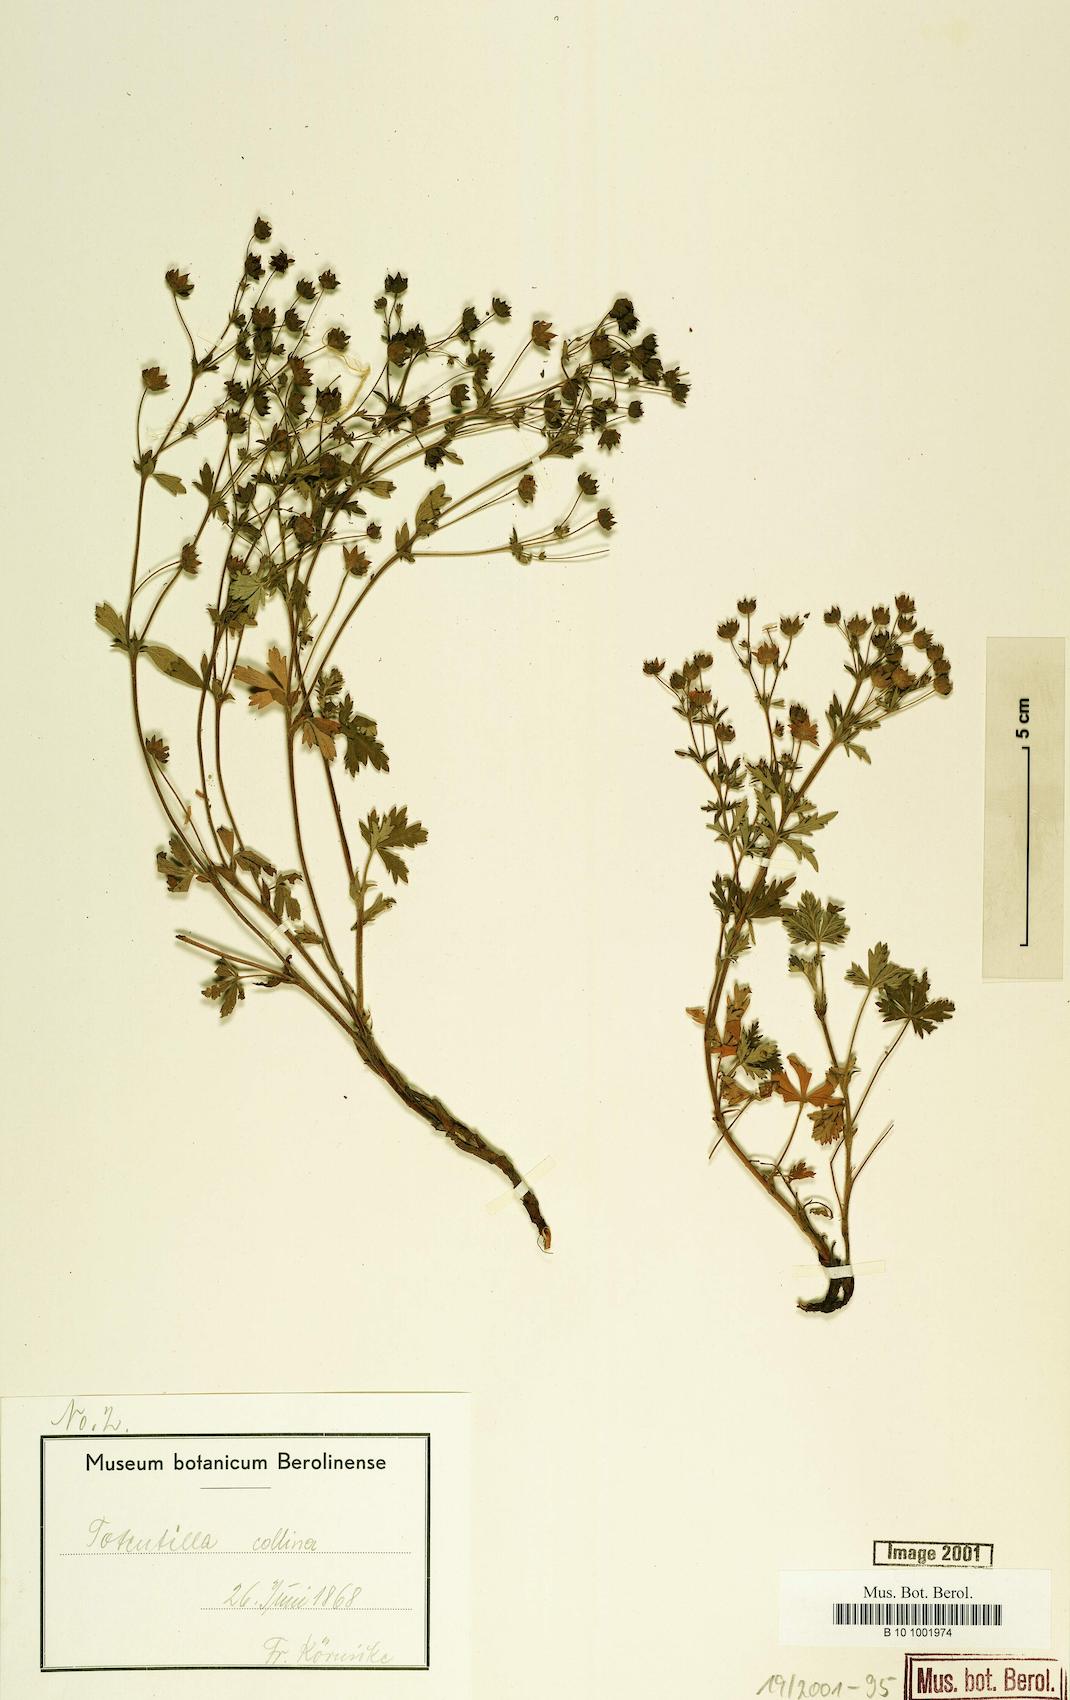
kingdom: Plantae
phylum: Tracheophyta
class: Magnoliopsida
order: Rosales
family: Rosaceae
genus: Potentilla
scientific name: Potentilla collina
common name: Palmleaf cinquefoil
